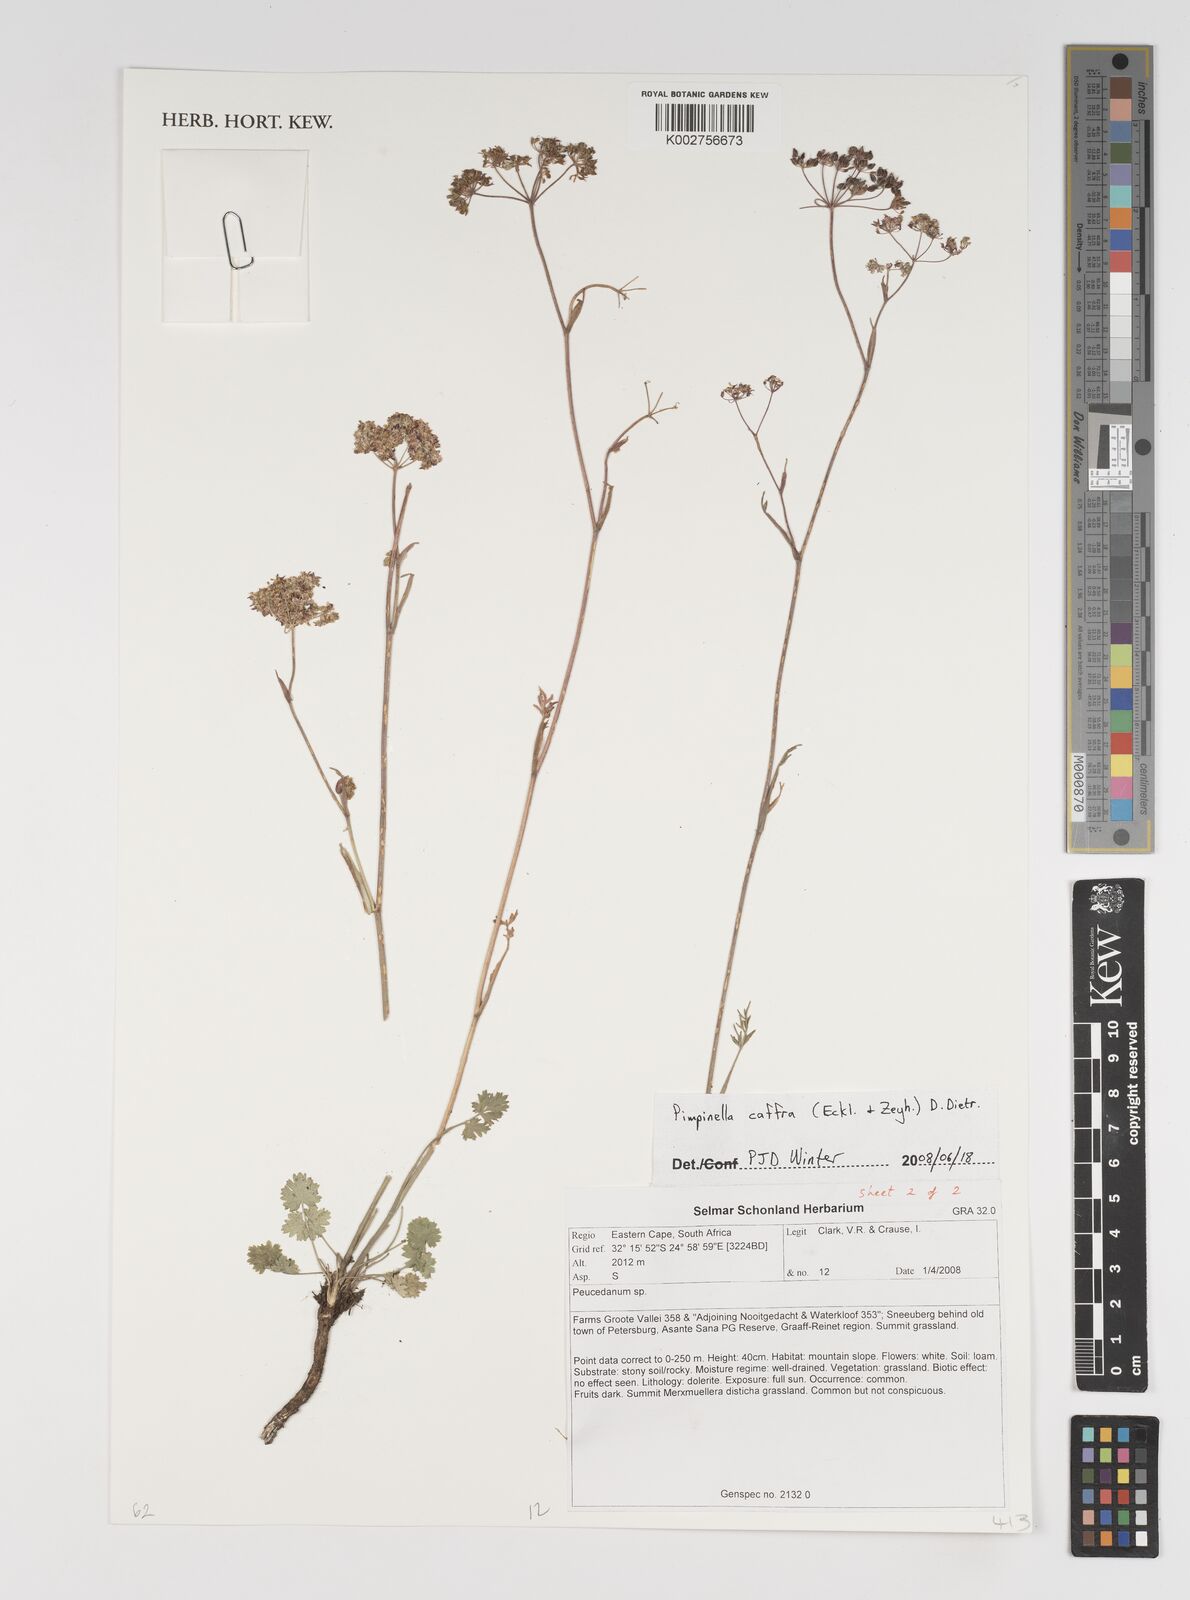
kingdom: Plantae
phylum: Tracheophyta
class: Magnoliopsida
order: Apiales
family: Apiaceae
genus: Pimpinella
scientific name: Pimpinella
